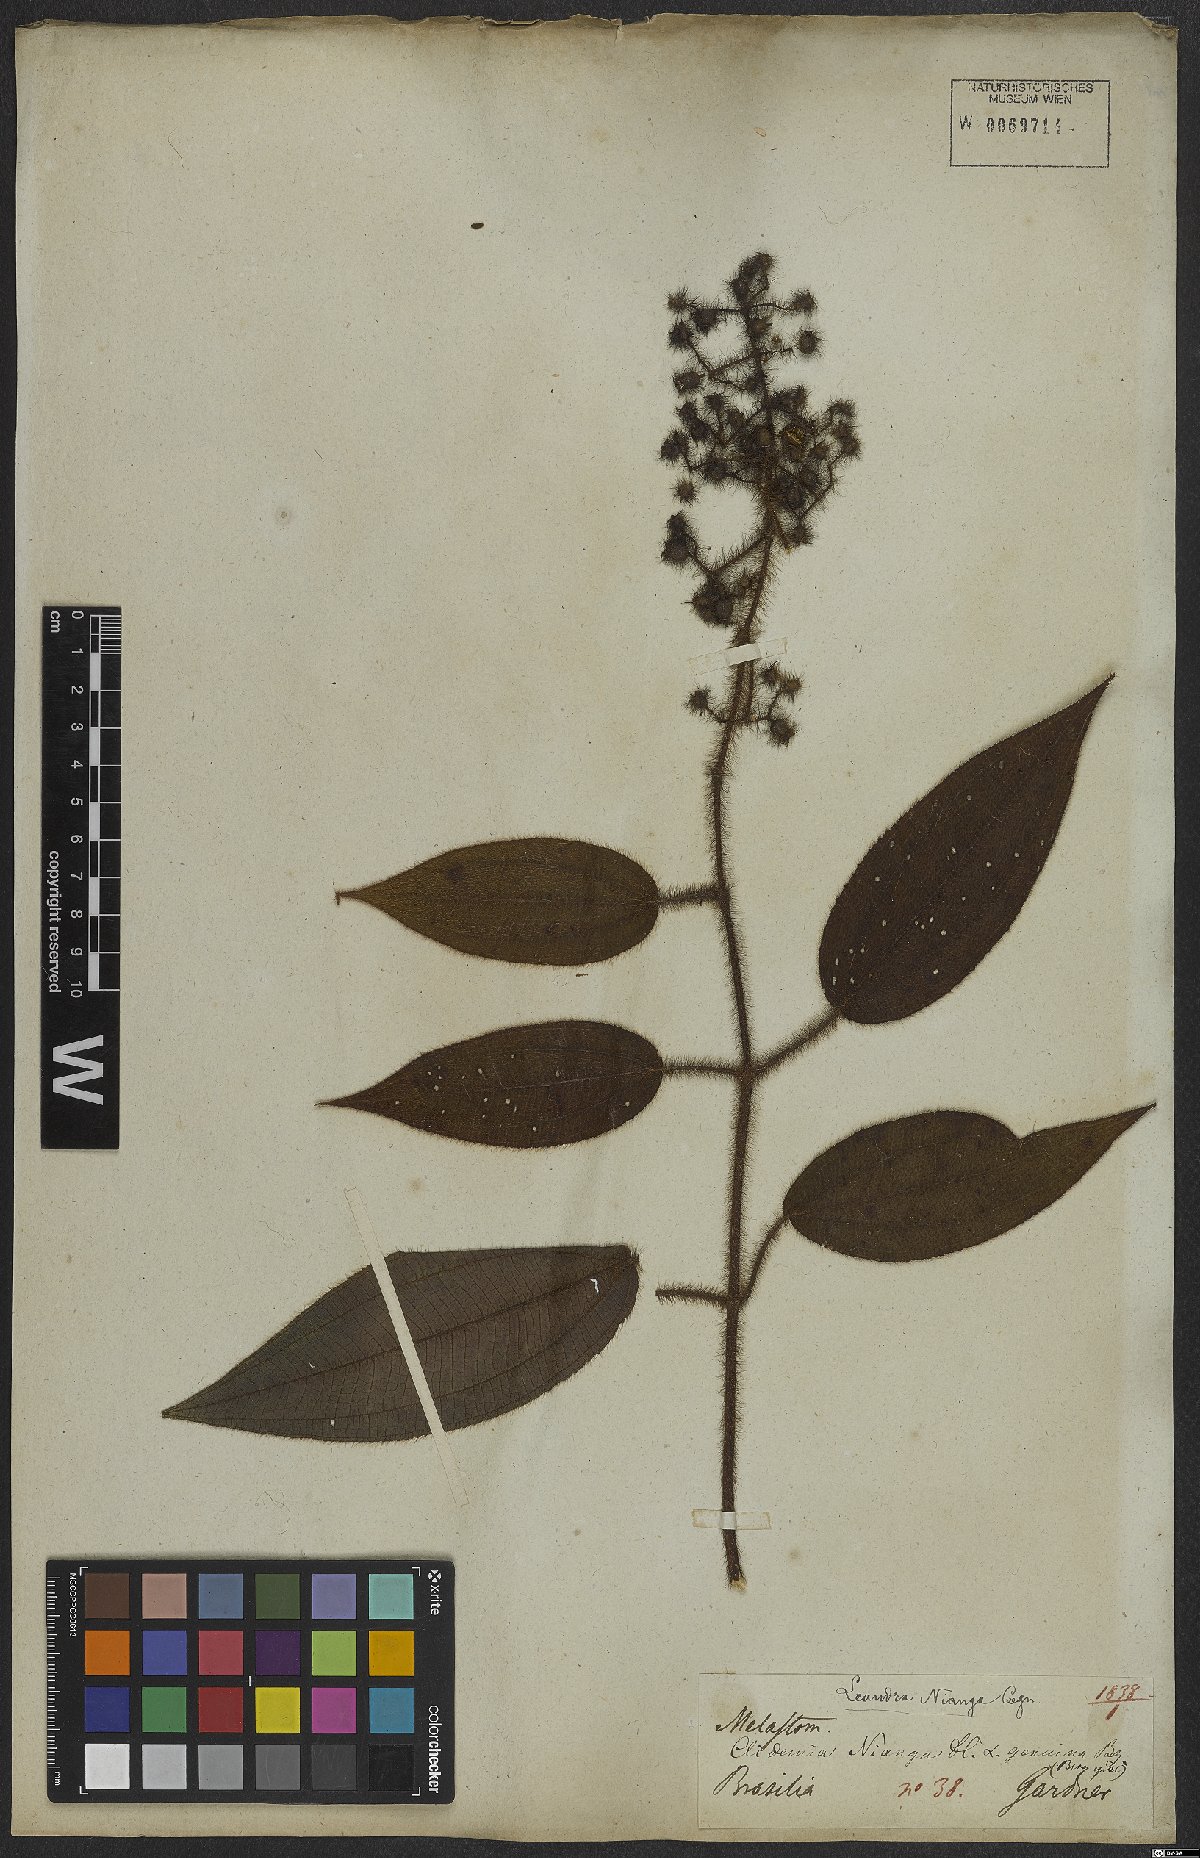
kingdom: Plantae
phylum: Tracheophyta
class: Magnoliopsida
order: Myrtales
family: Melastomataceae
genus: Miconia
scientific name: Miconia nianga
